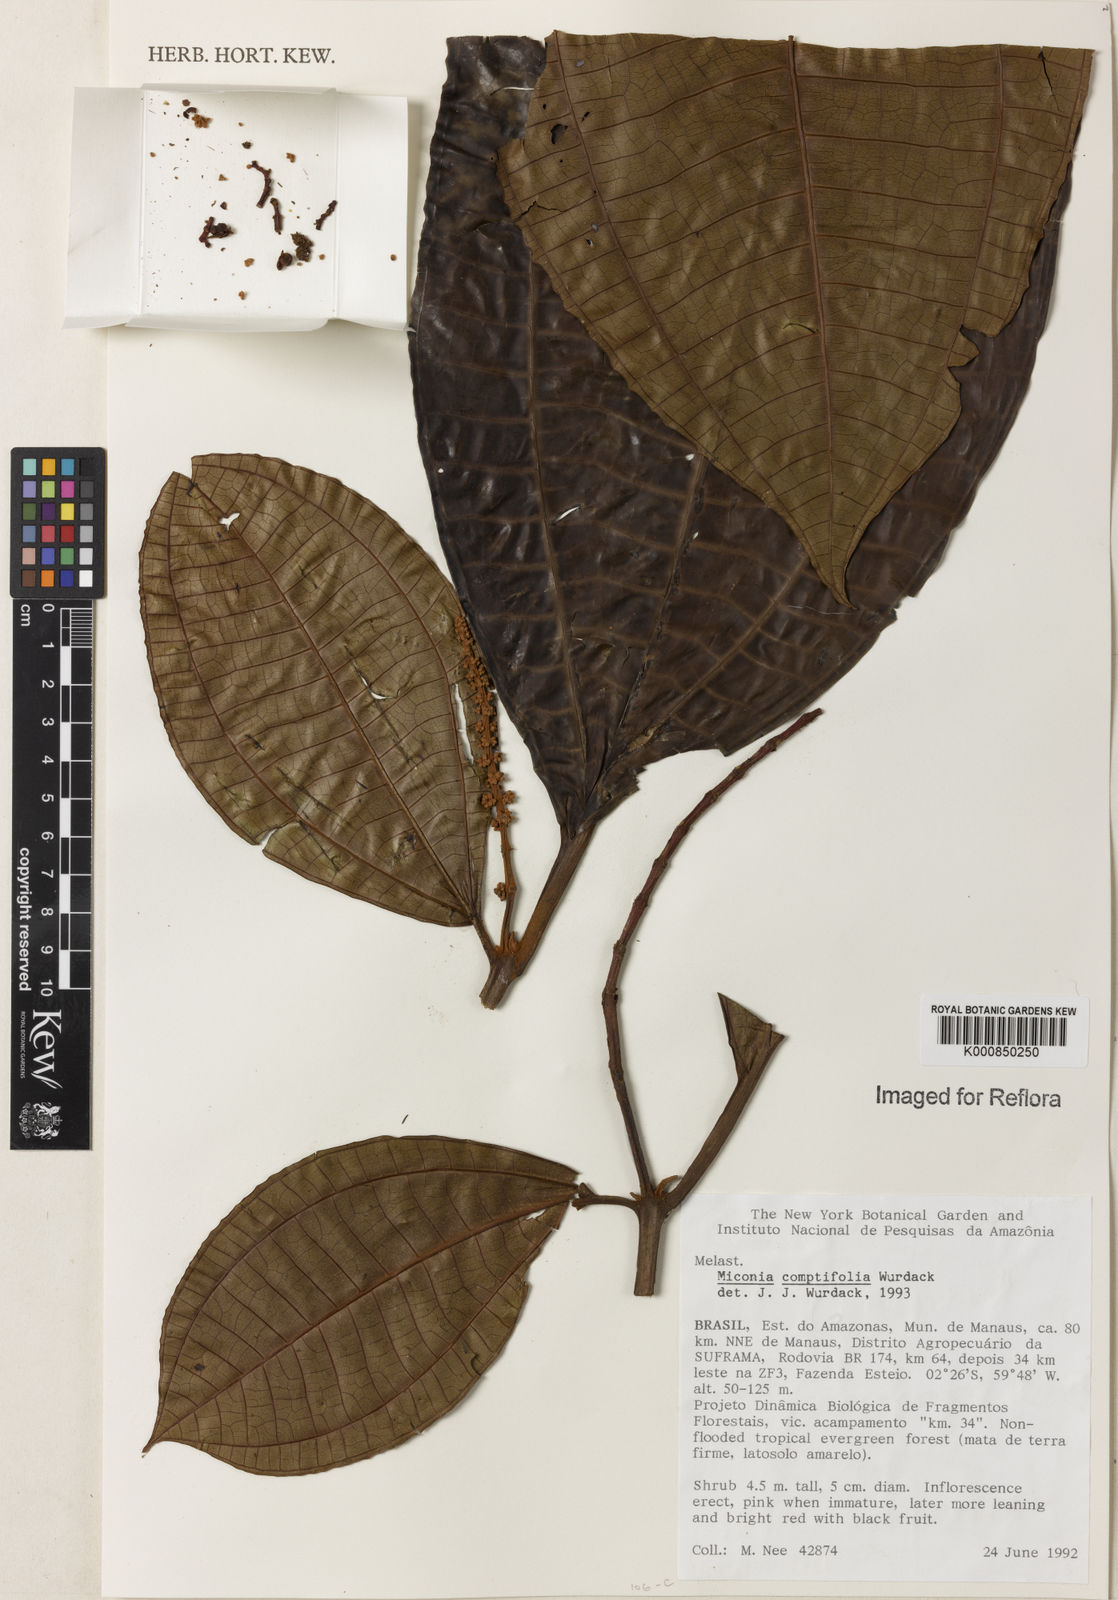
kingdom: Plantae
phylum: Tracheophyta
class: Magnoliopsida
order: Myrtales
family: Melastomataceae
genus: Miconia
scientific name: Miconia comptifolia
